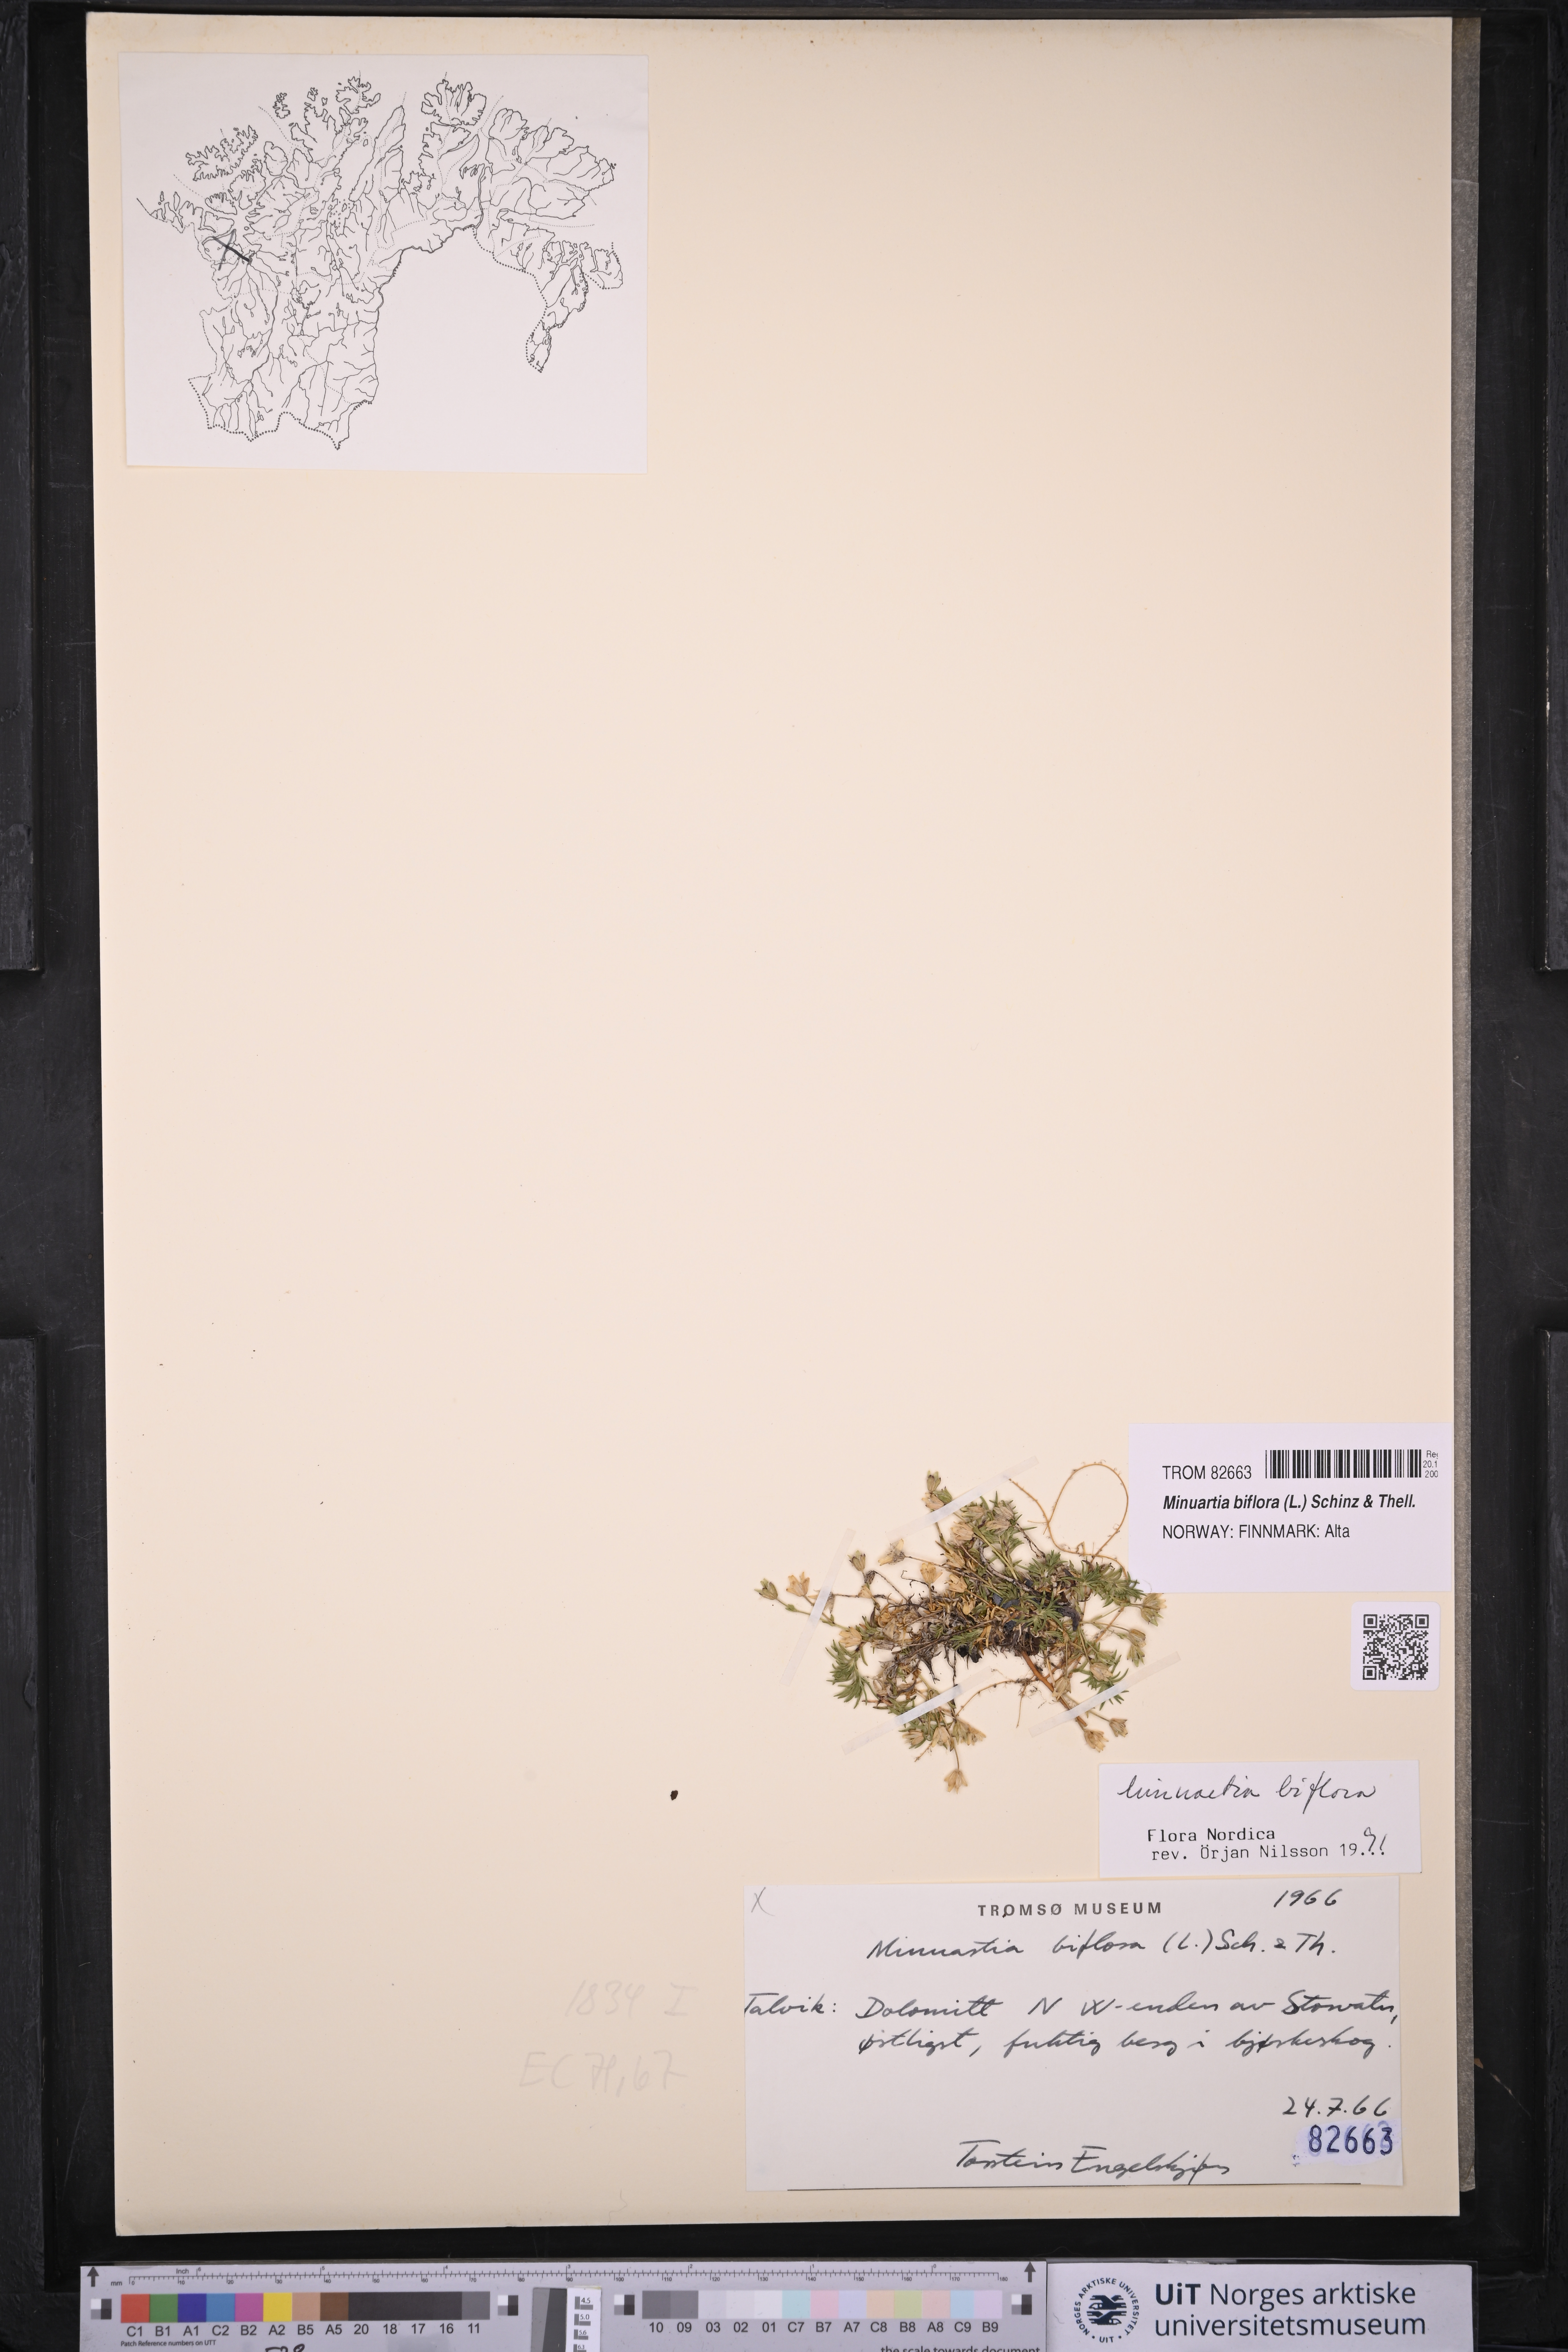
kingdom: Plantae
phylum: Tracheophyta
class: Magnoliopsida
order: Caryophyllales
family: Caryophyllaceae
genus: Cherleria
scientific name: Cherleria biflora
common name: Mountain sandwort
